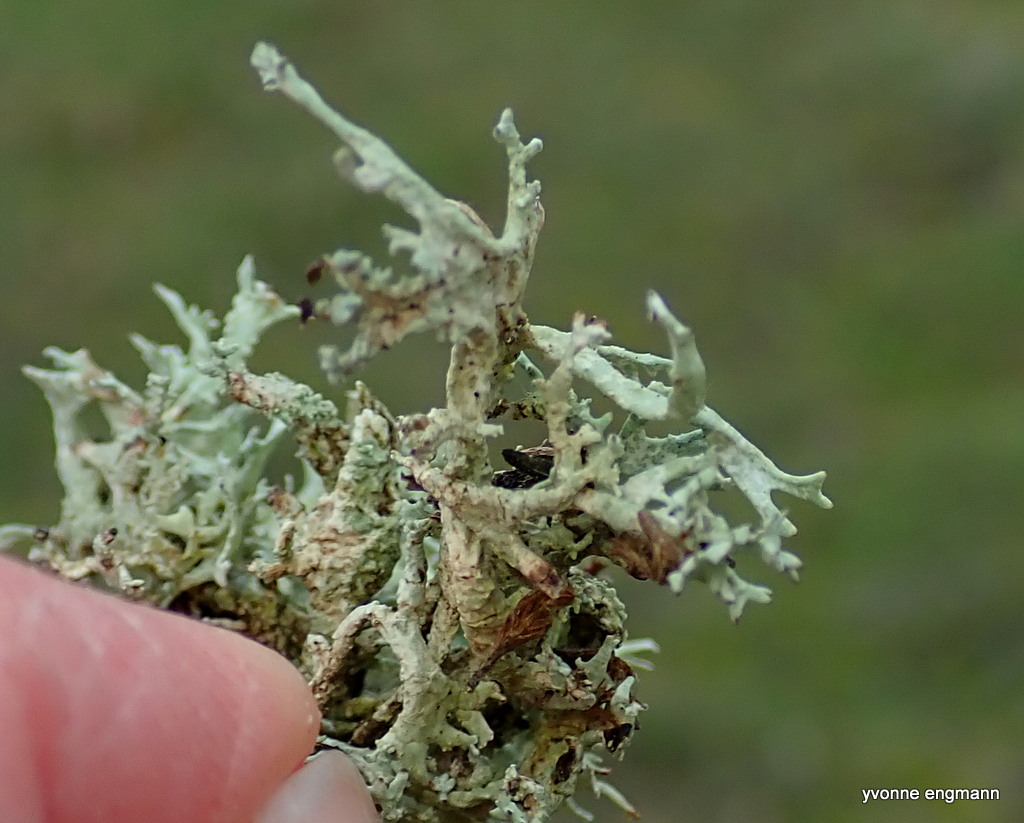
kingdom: Fungi
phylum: Ascomycota
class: Lecanoromycetes
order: Lecanorales
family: Parmeliaceae
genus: Evernia
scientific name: Evernia prunastri
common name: almindelig slåenlav
